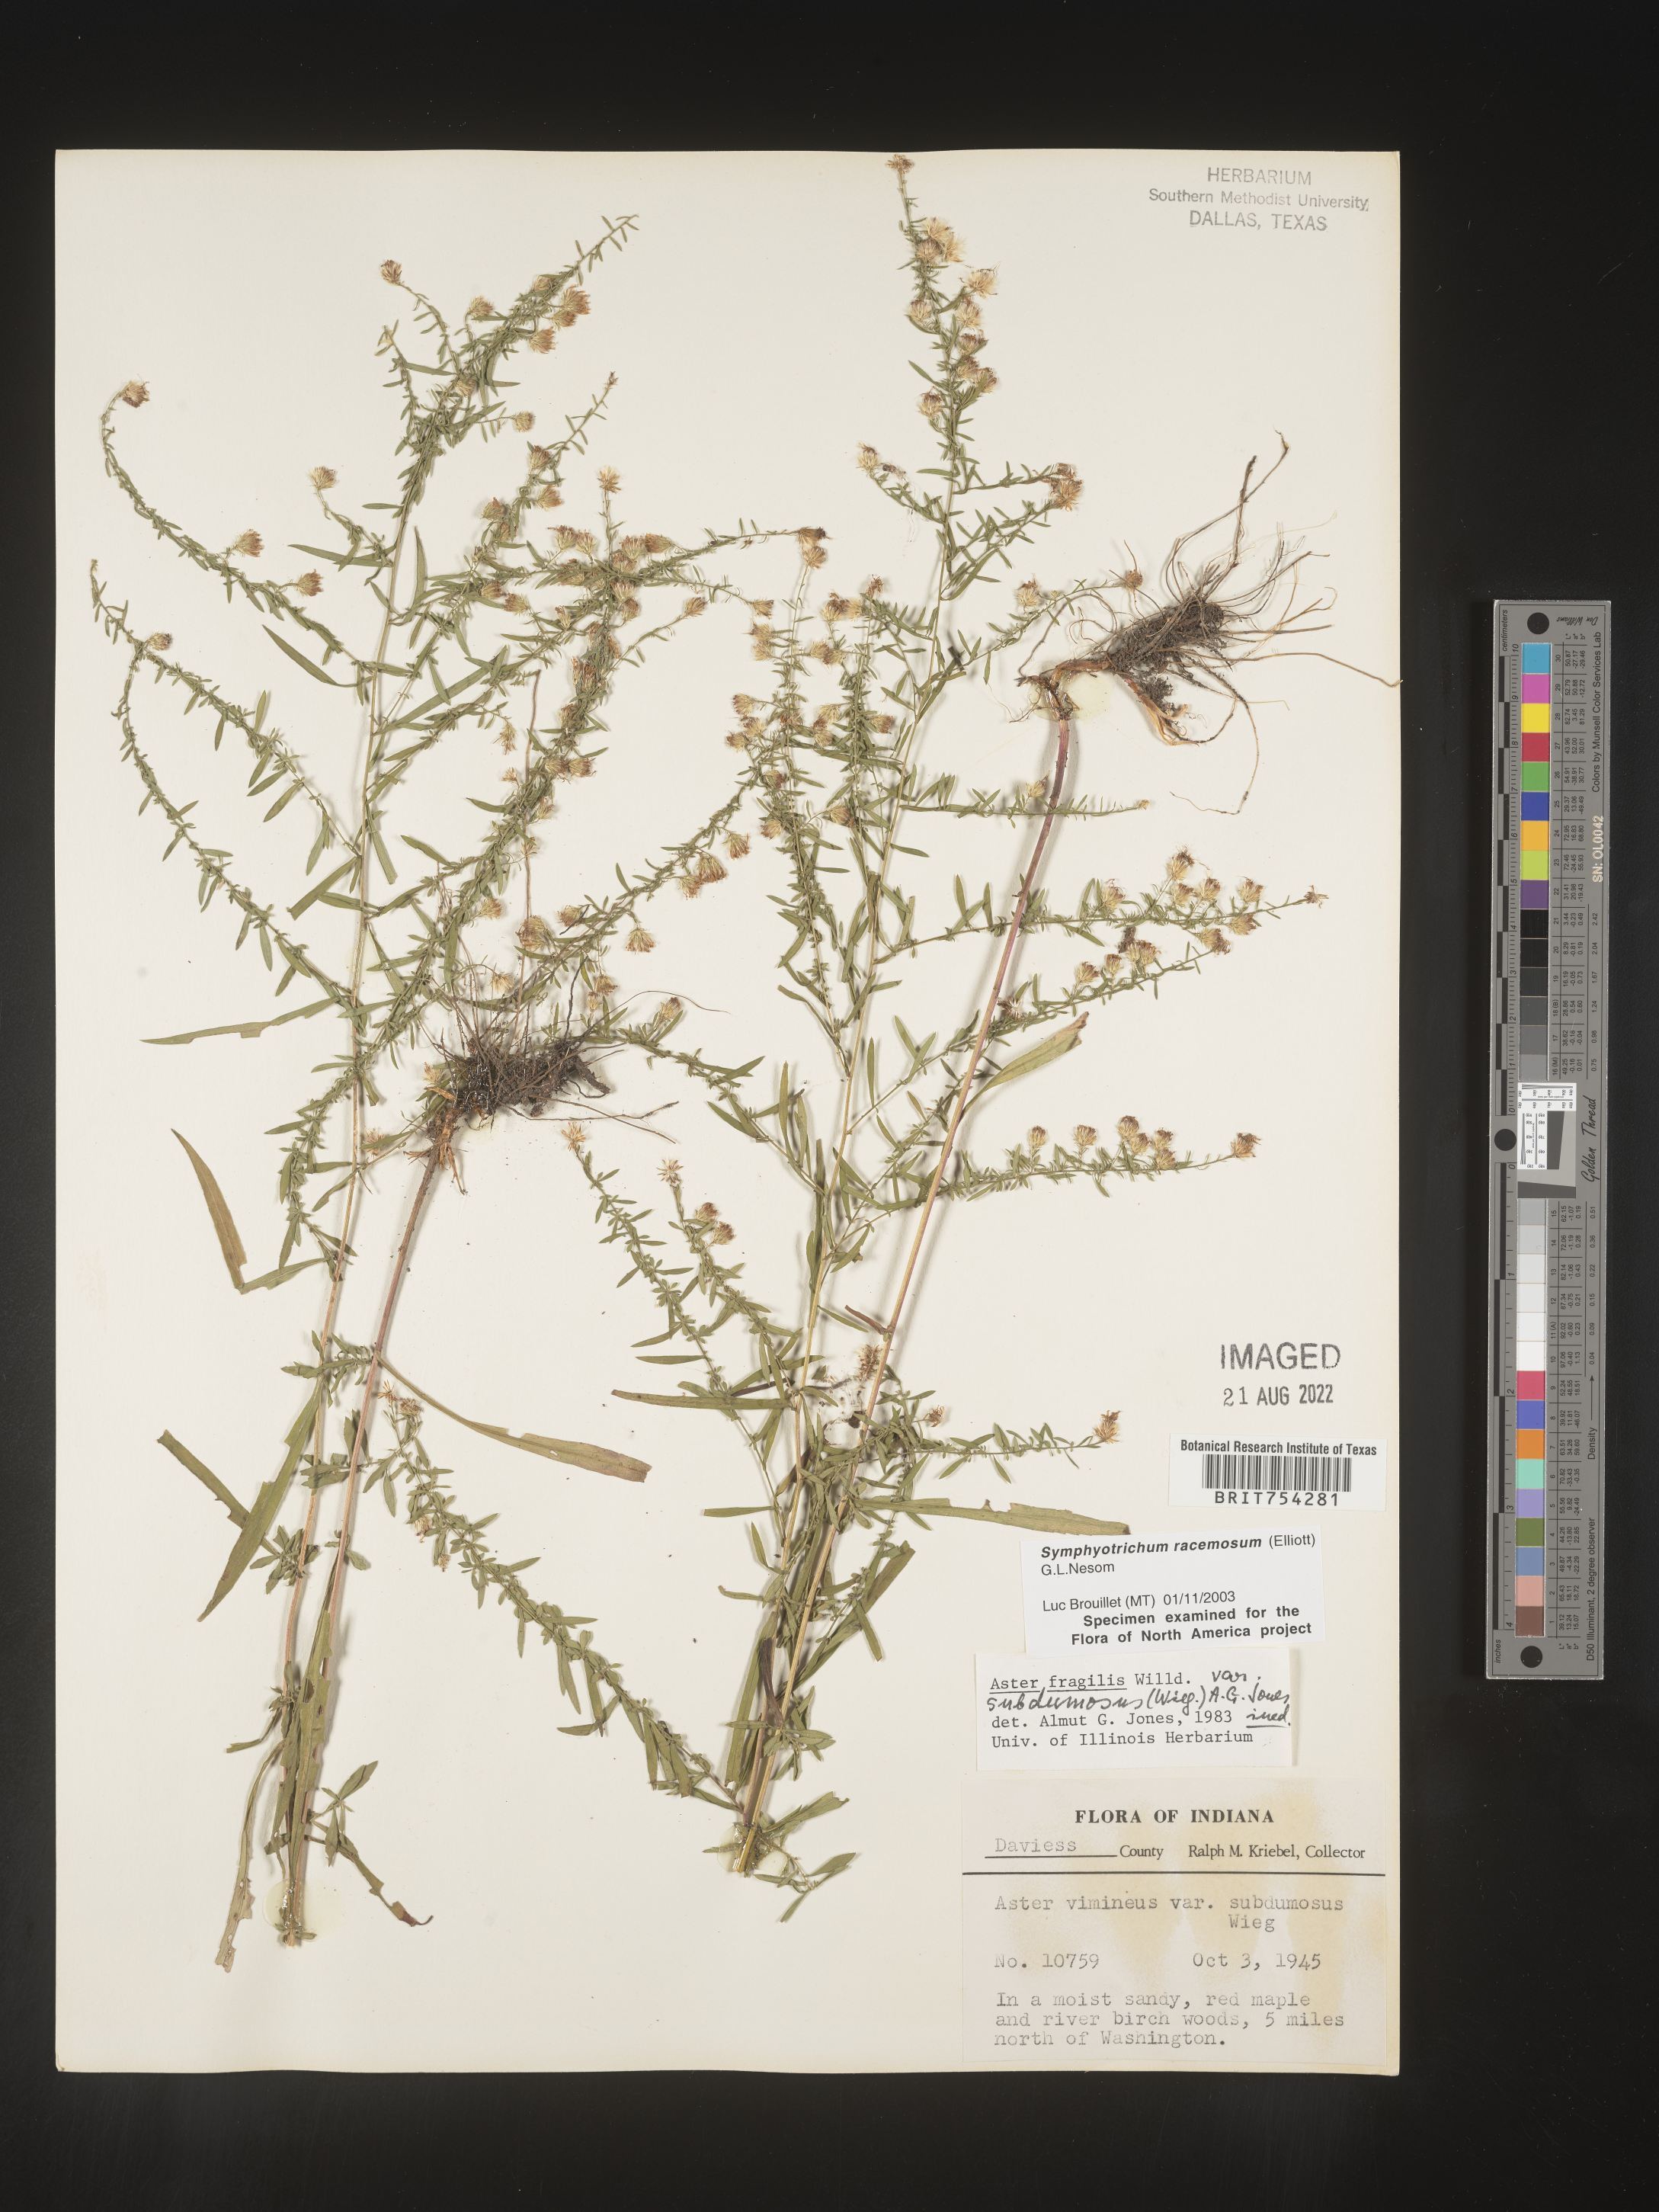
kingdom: Plantae
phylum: Tracheophyta
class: Magnoliopsida
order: Asterales
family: Asteraceae
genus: Symphyotrichum
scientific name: Symphyotrichum racemosum
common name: Small white aster
